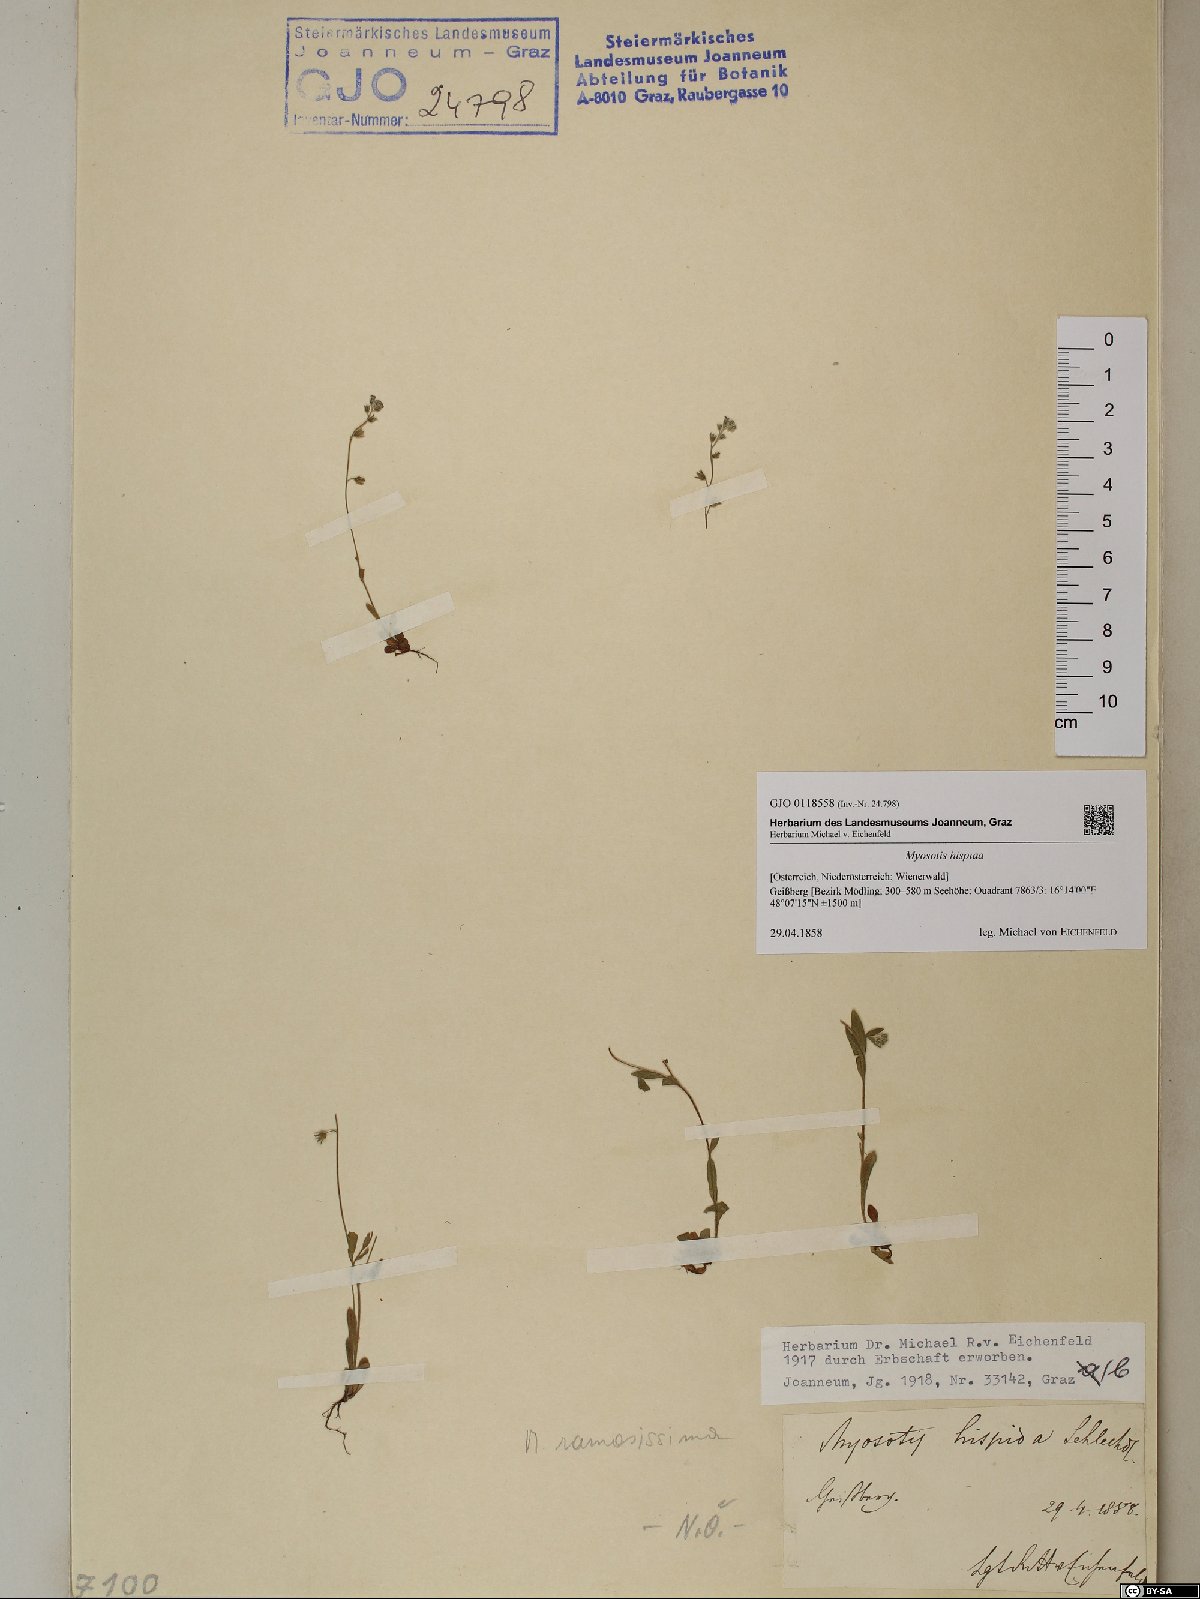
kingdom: Plantae
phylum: Tracheophyta
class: Magnoliopsida
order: Boraginales
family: Boraginaceae
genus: Myosotis
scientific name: Myosotis ramosissima
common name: Early forget-me-not
